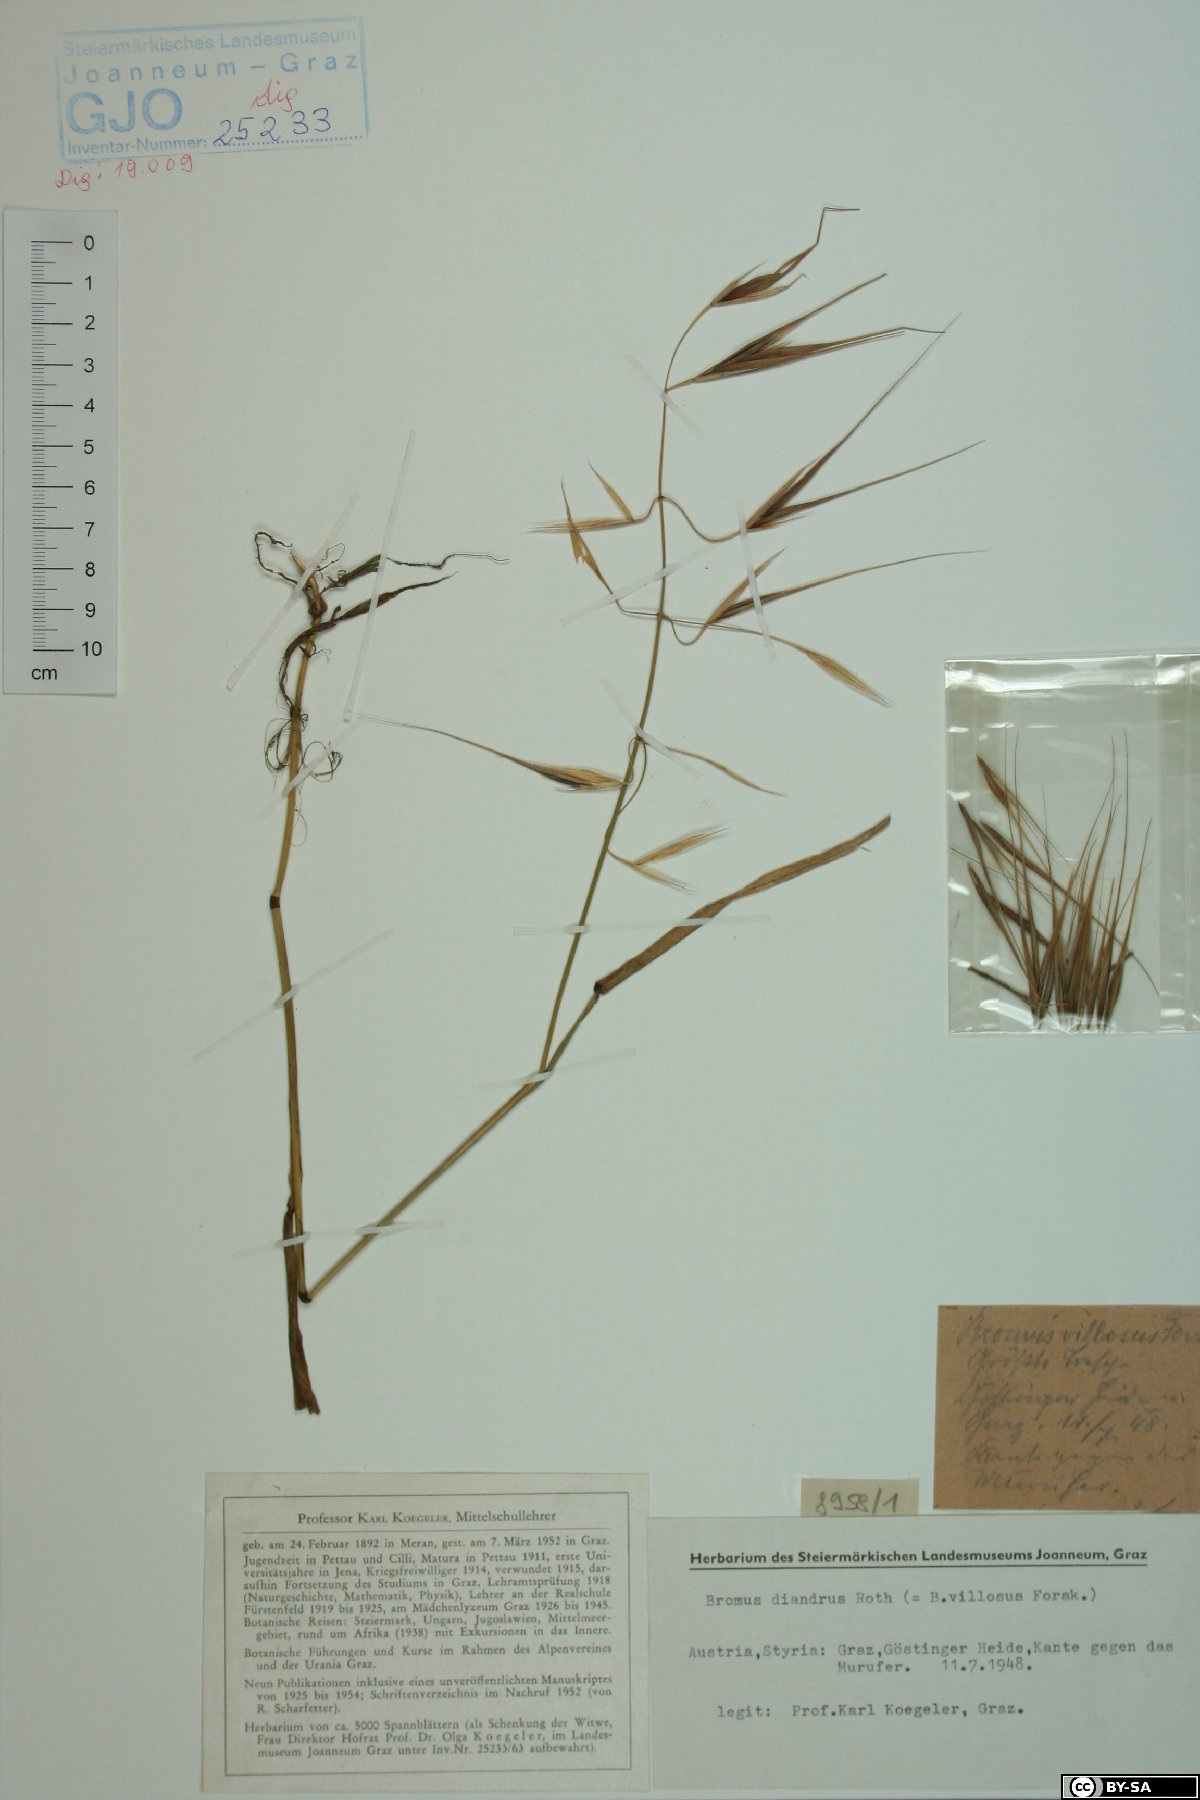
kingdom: Plantae
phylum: Tracheophyta
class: Liliopsida
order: Poales
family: Poaceae
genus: Bromus
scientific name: Bromus diandrus
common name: Ripgut brome
